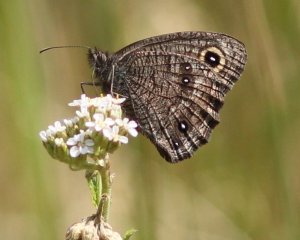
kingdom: Animalia
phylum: Arthropoda
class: Insecta
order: Lepidoptera
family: Nymphalidae
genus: Cercyonis
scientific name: Cercyonis sthenele
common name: Great Basin Wood-Nymph
